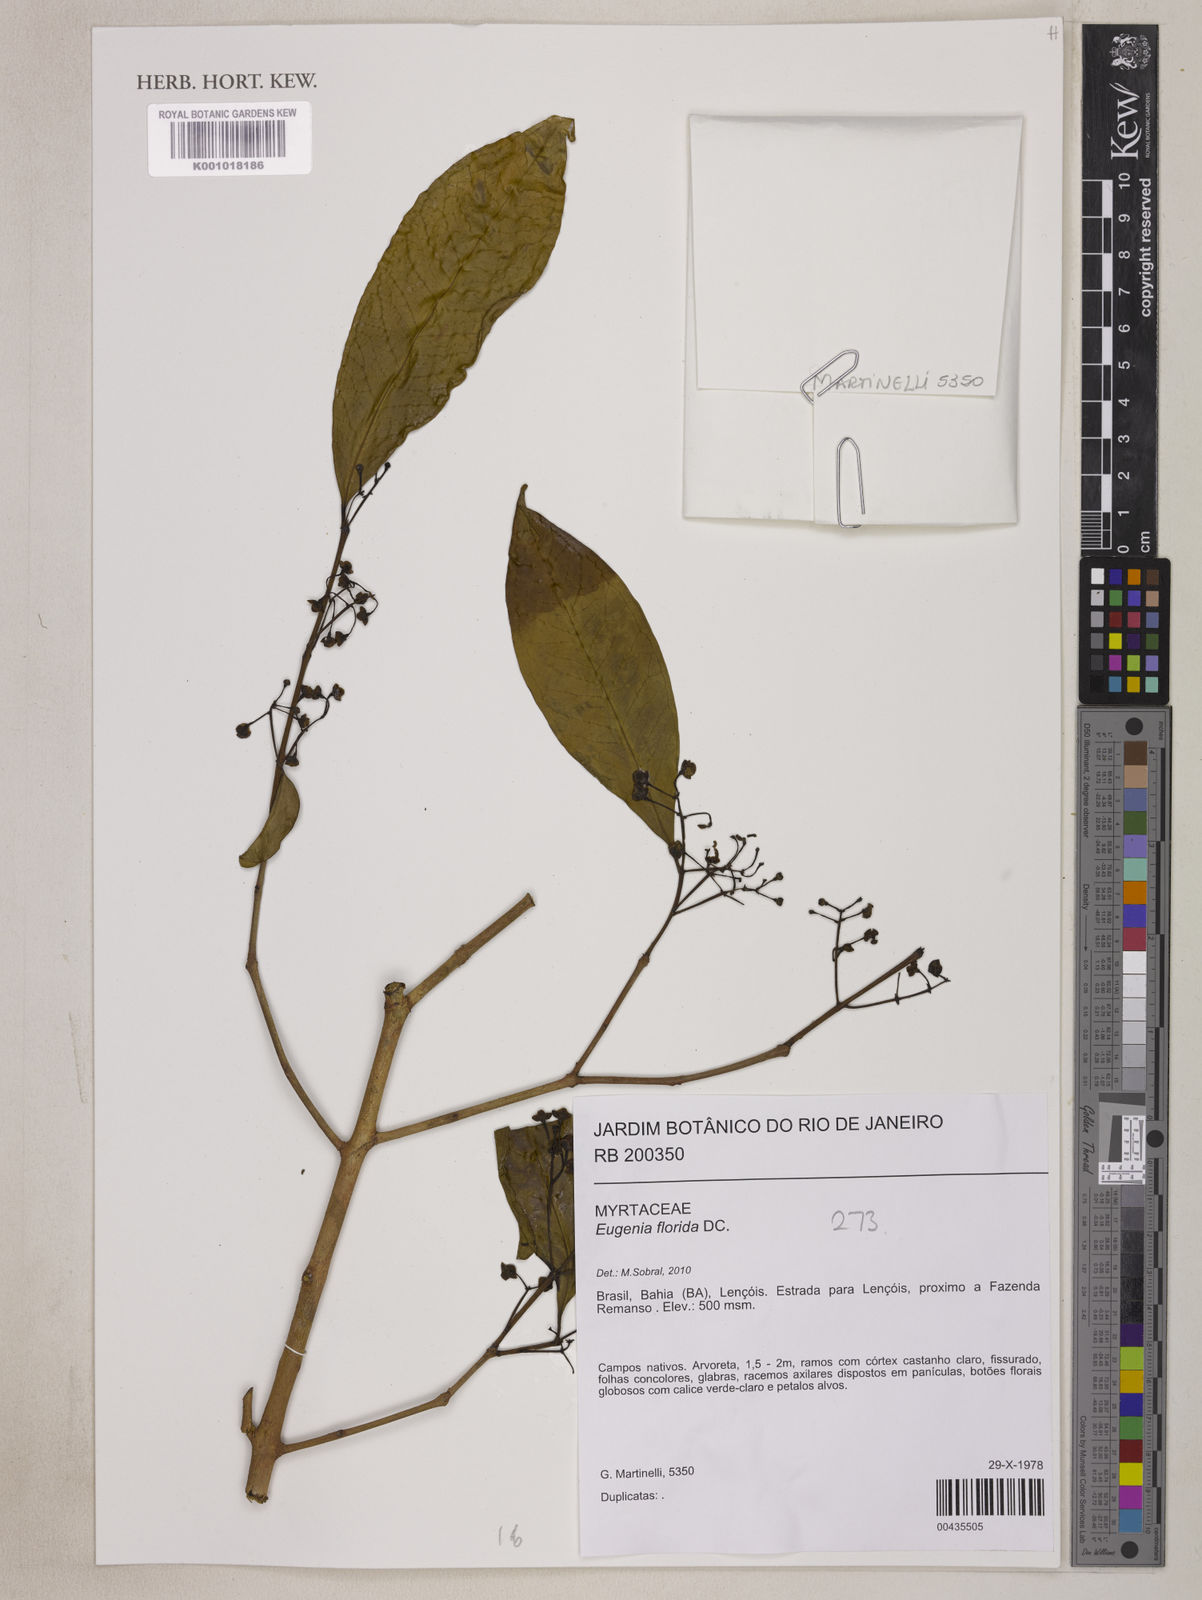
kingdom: Plantae
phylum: Tracheophyta
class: Magnoliopsida
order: Myrtales
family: Myrtaceae
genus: Eugenia
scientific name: Eugenia florida
